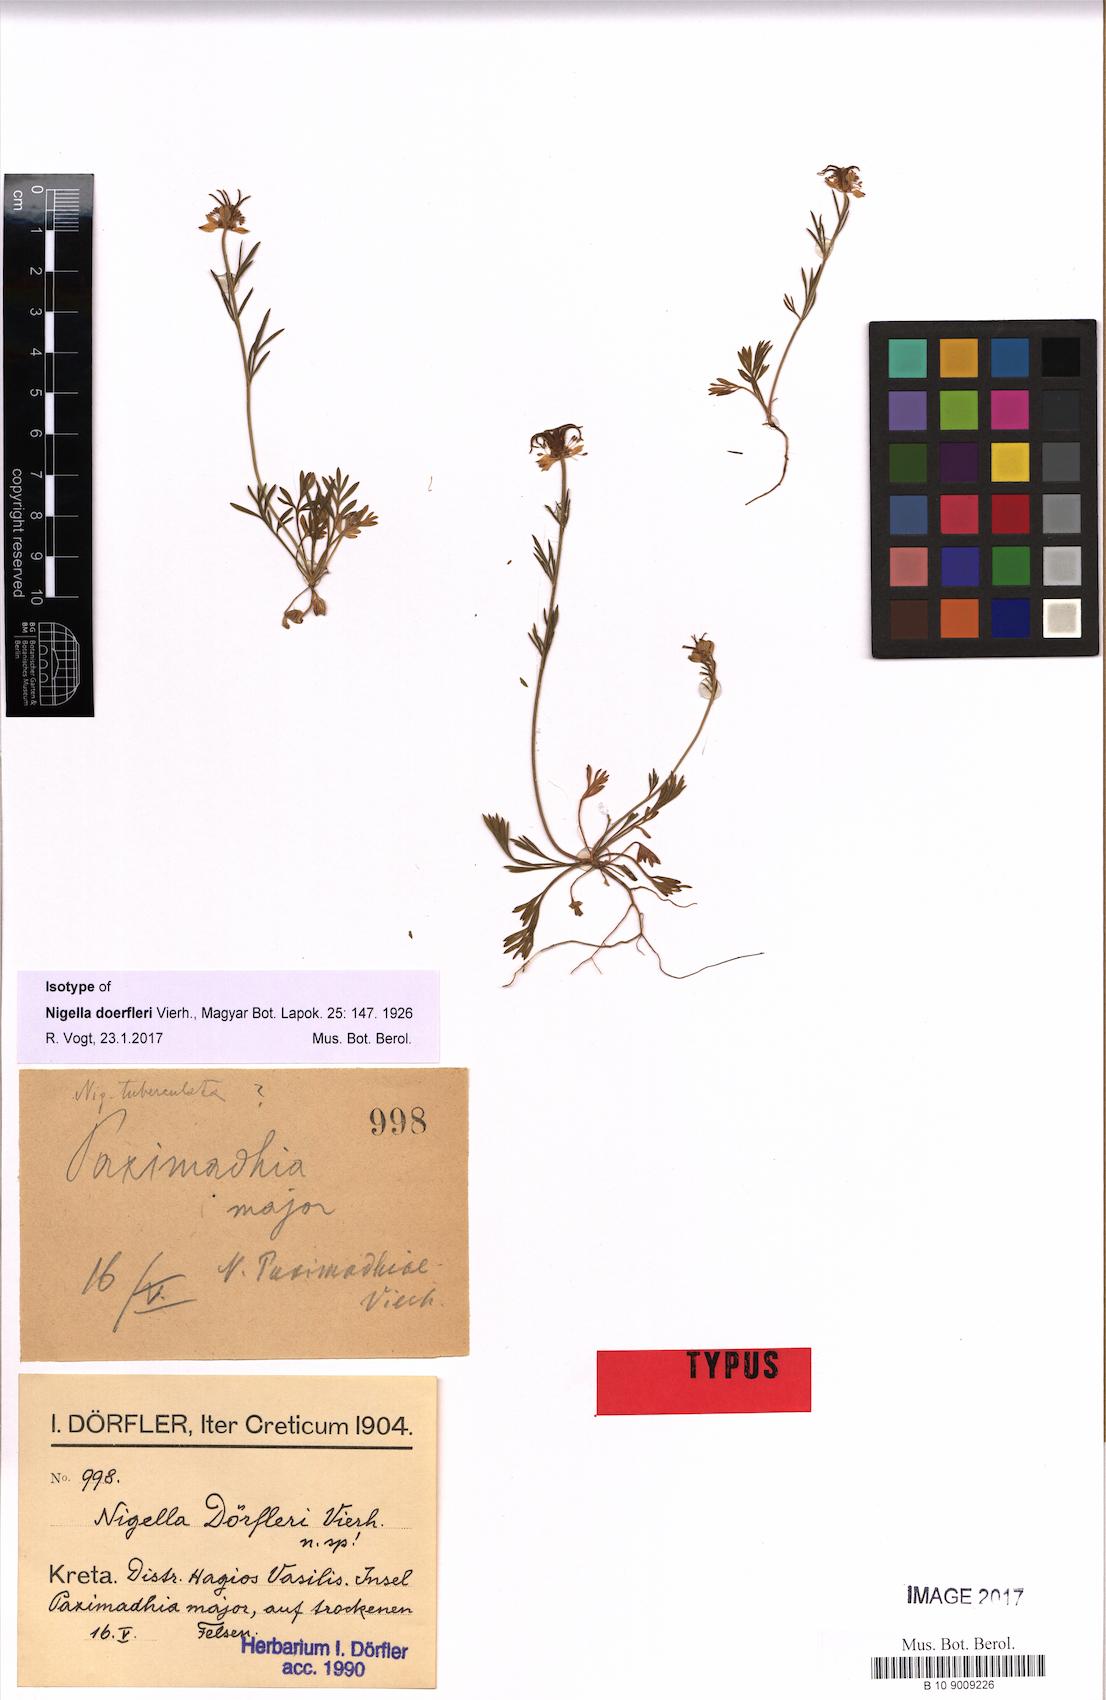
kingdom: Plantae
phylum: Tracheophyta
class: Magnoliopsida
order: Ranunculales
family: Ranunculaceae
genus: Nigella
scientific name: Nigella doerfleri
